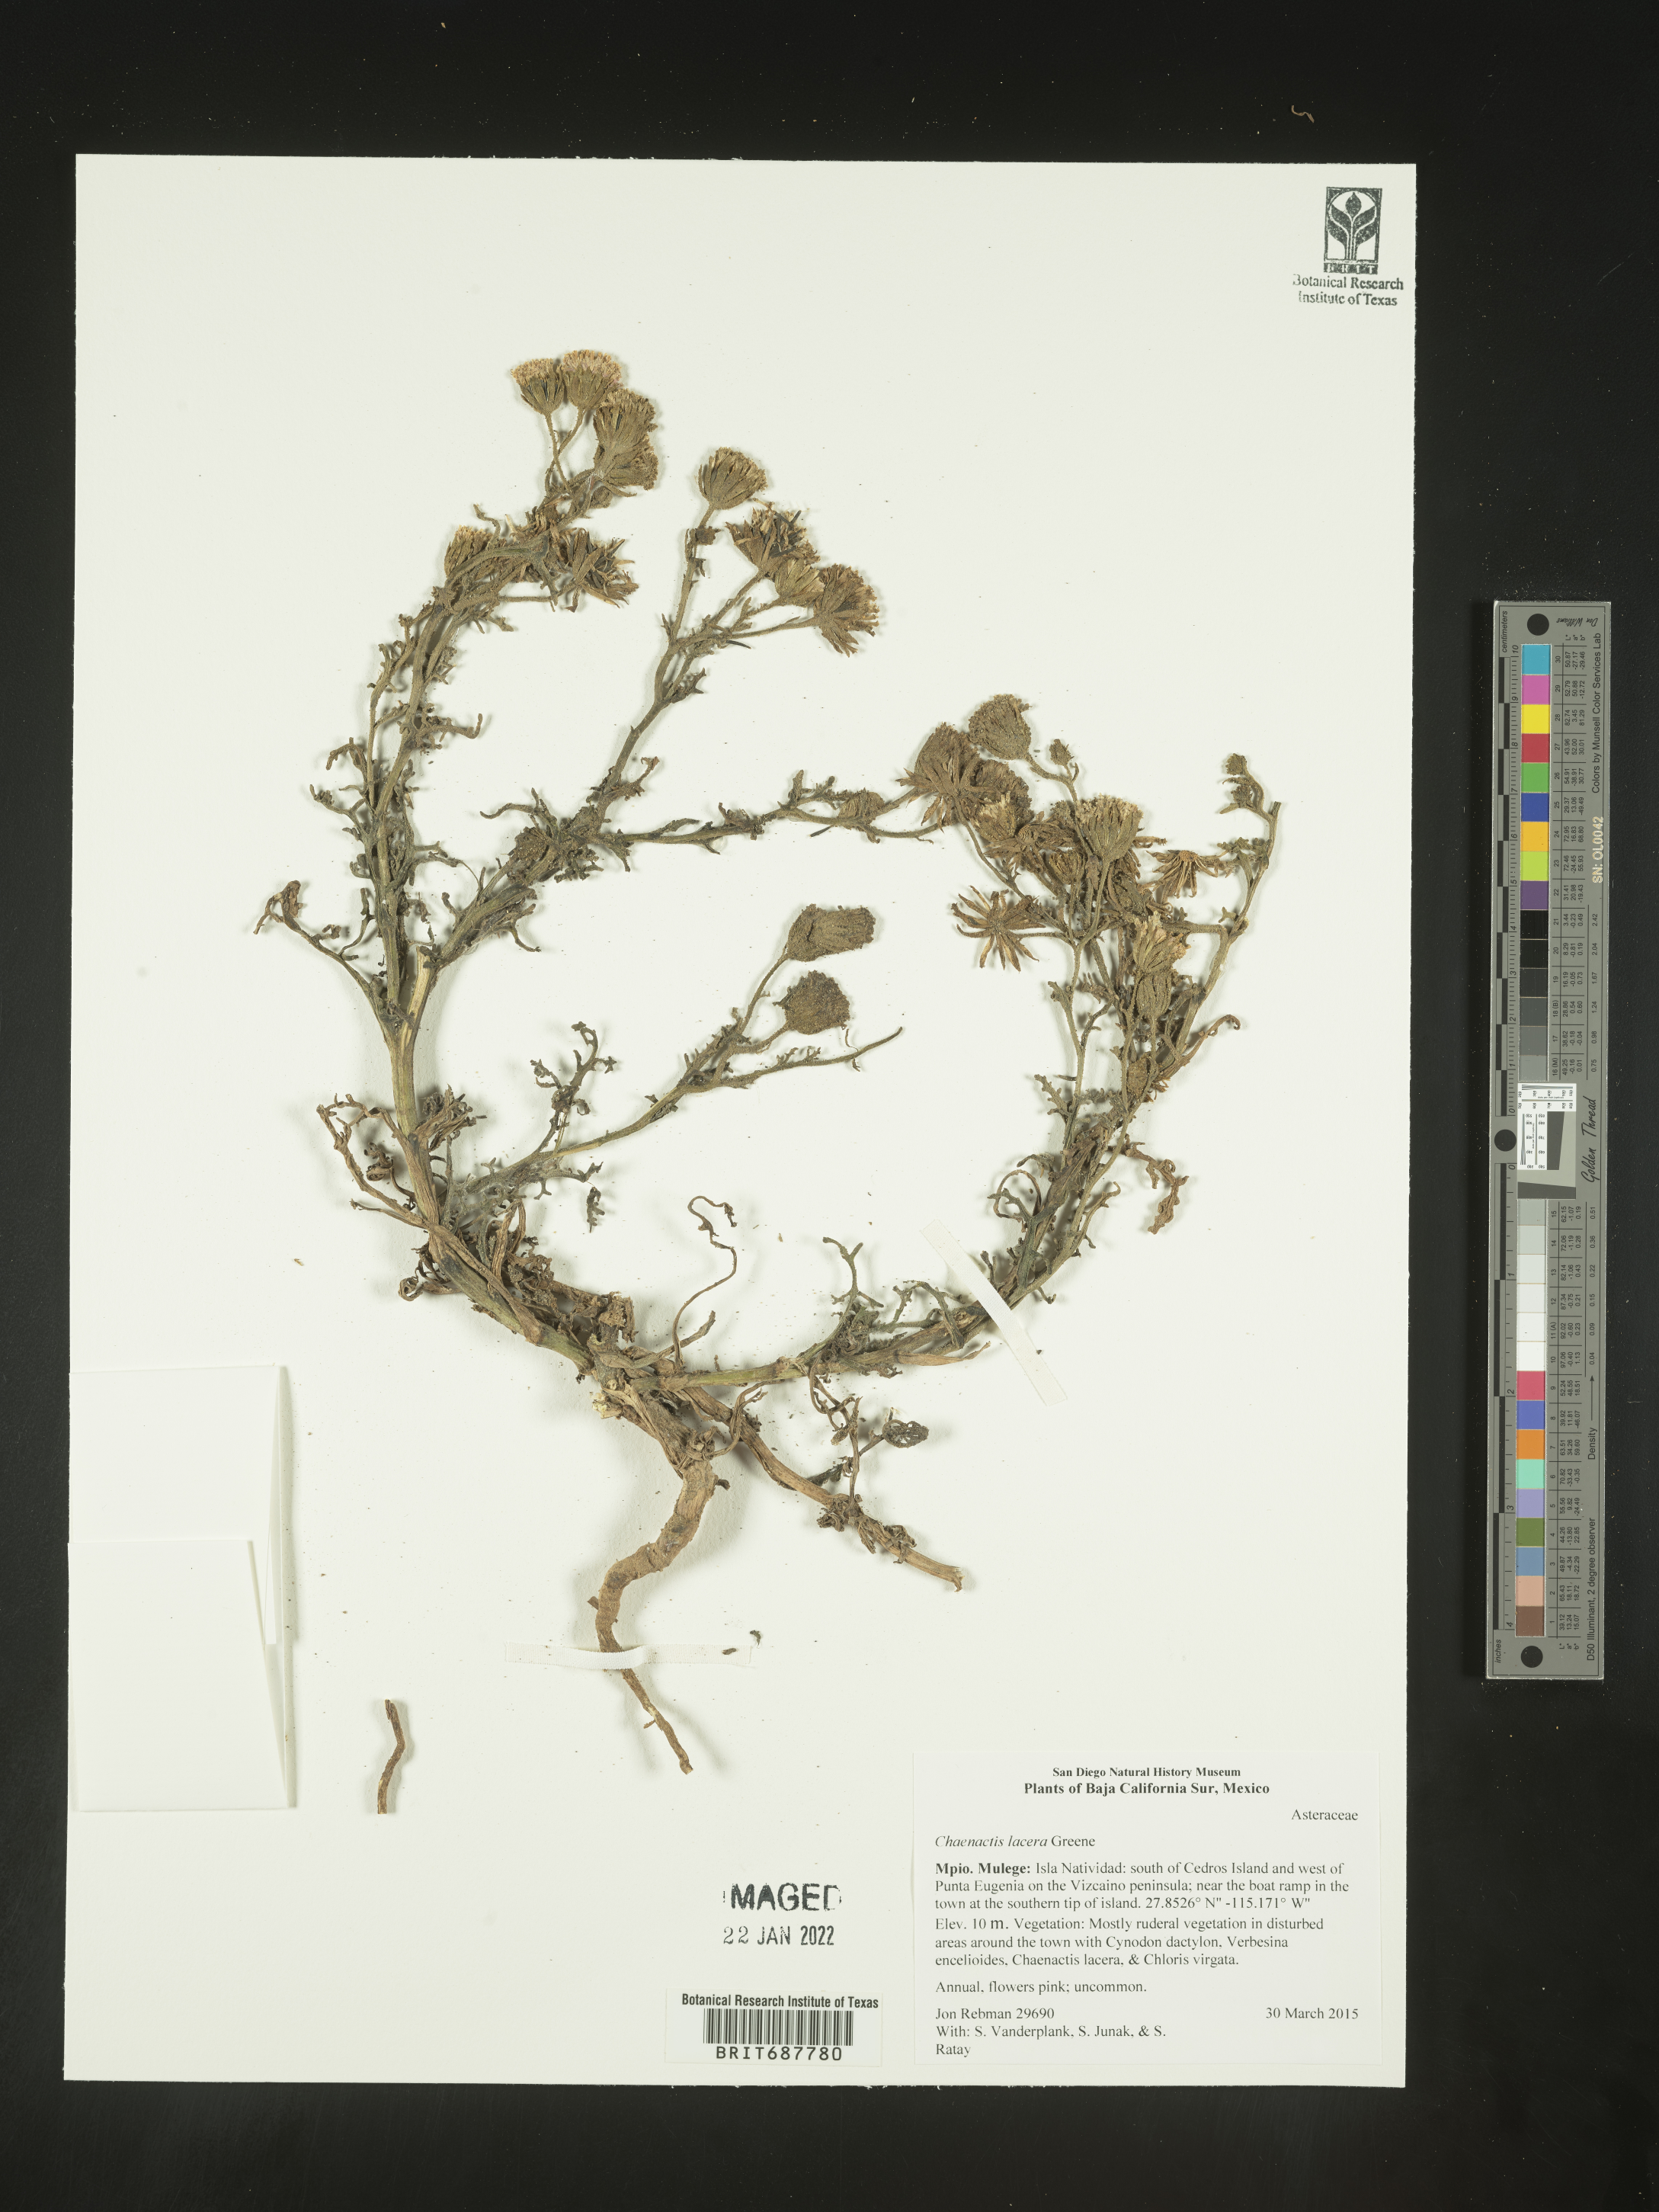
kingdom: Plantae
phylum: Tracheophyta
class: Magnoliopsida
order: Asterales
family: Asteraceae
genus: Chaenactis
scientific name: Chaenactis
